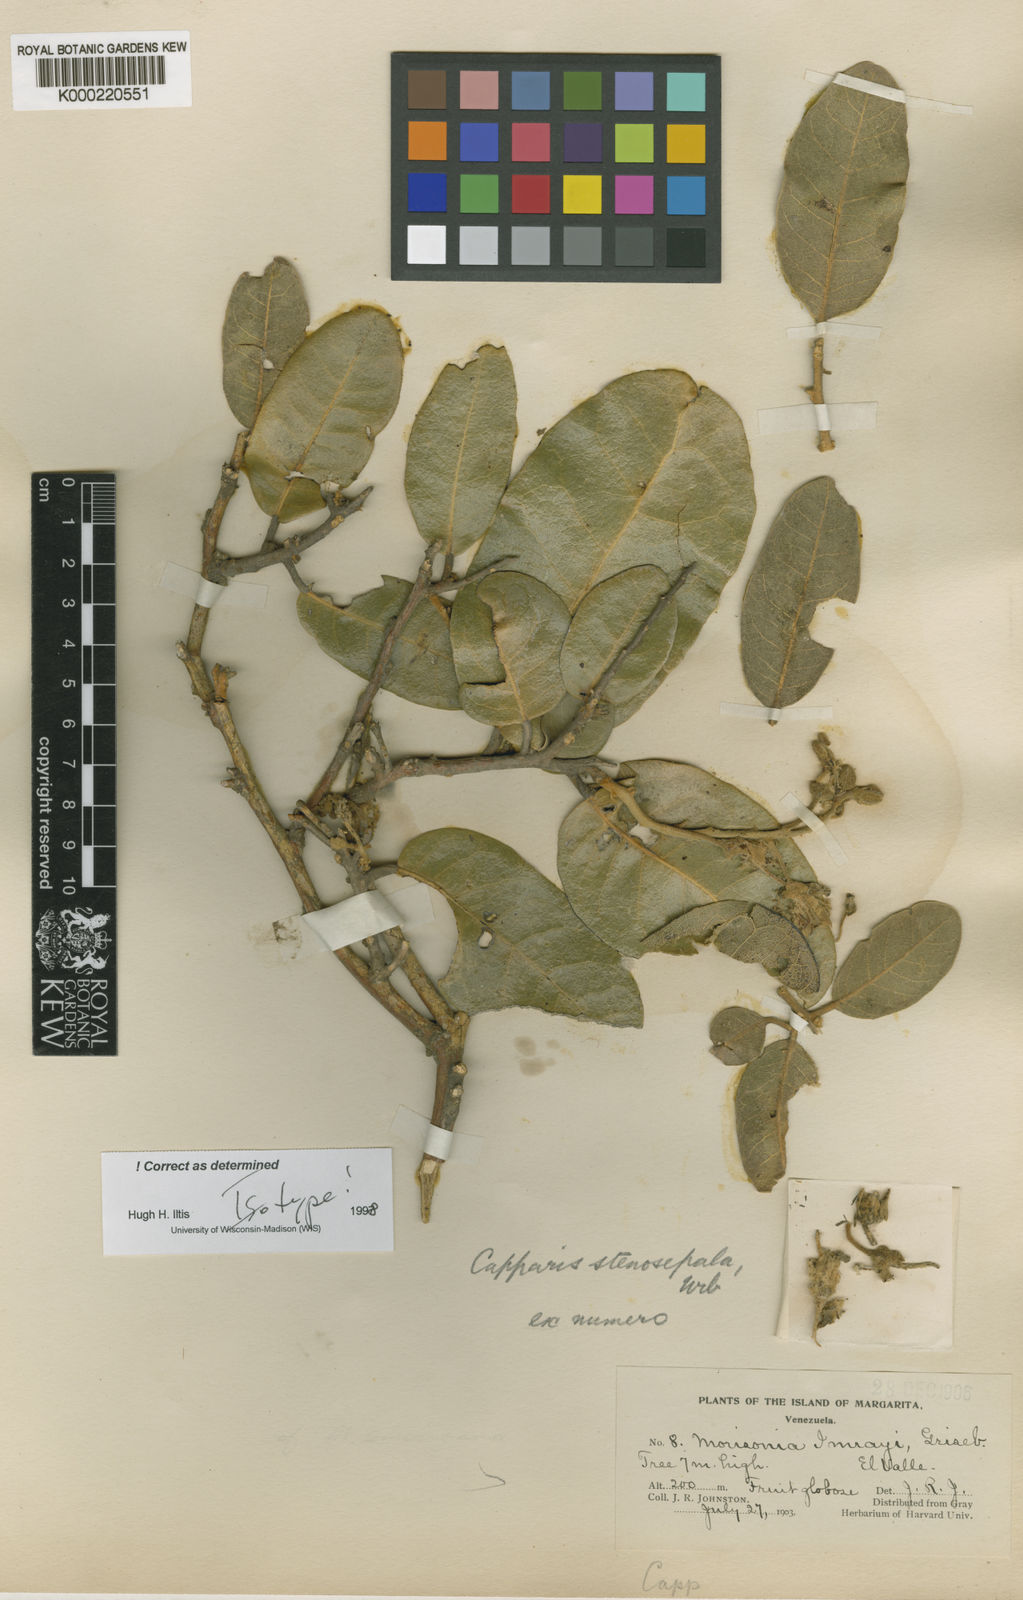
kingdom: Plantae
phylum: Tracheophyta
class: Magnoliopsida
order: Brassicales
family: Capparaceae
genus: Calanthea
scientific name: Calanthea stenosepala
